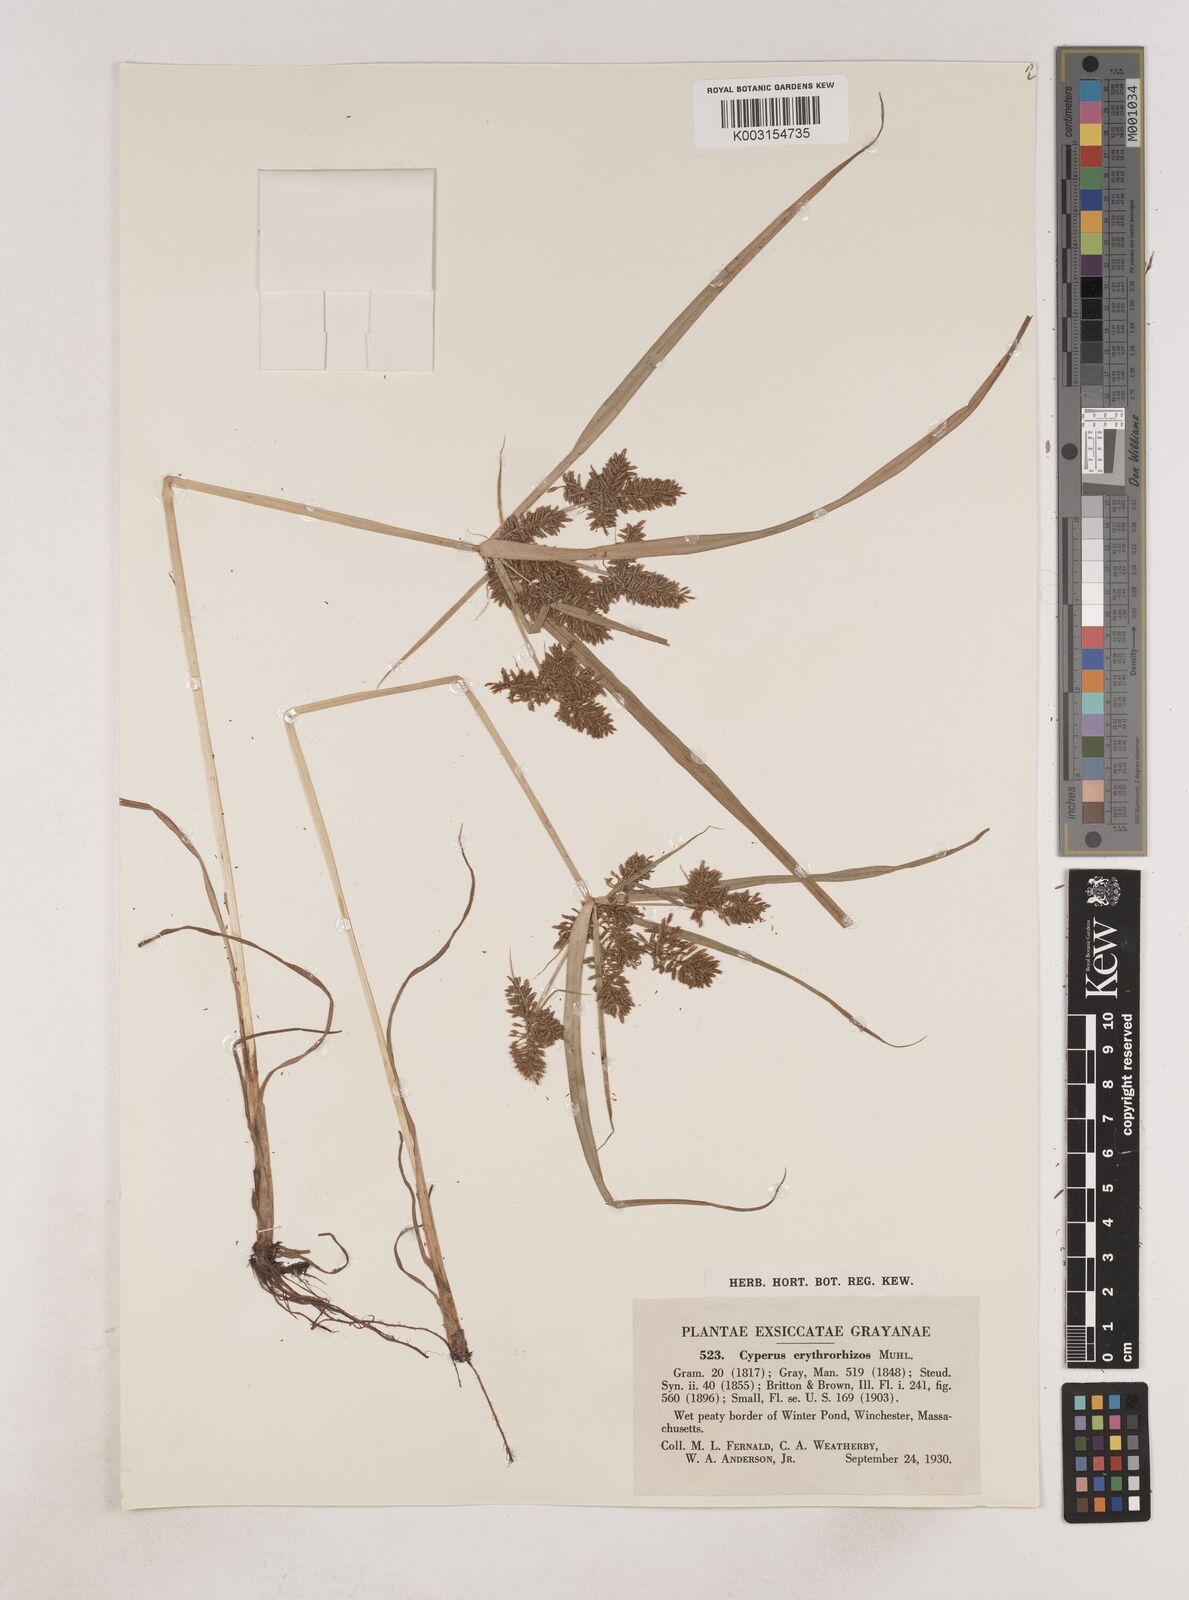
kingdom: Plantae
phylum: Tracheophyta
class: Liliopsida
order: Poales
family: Cyperaceae
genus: Cyperus
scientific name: Cyperus erythrorhizos
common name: Red-root flat sedge
